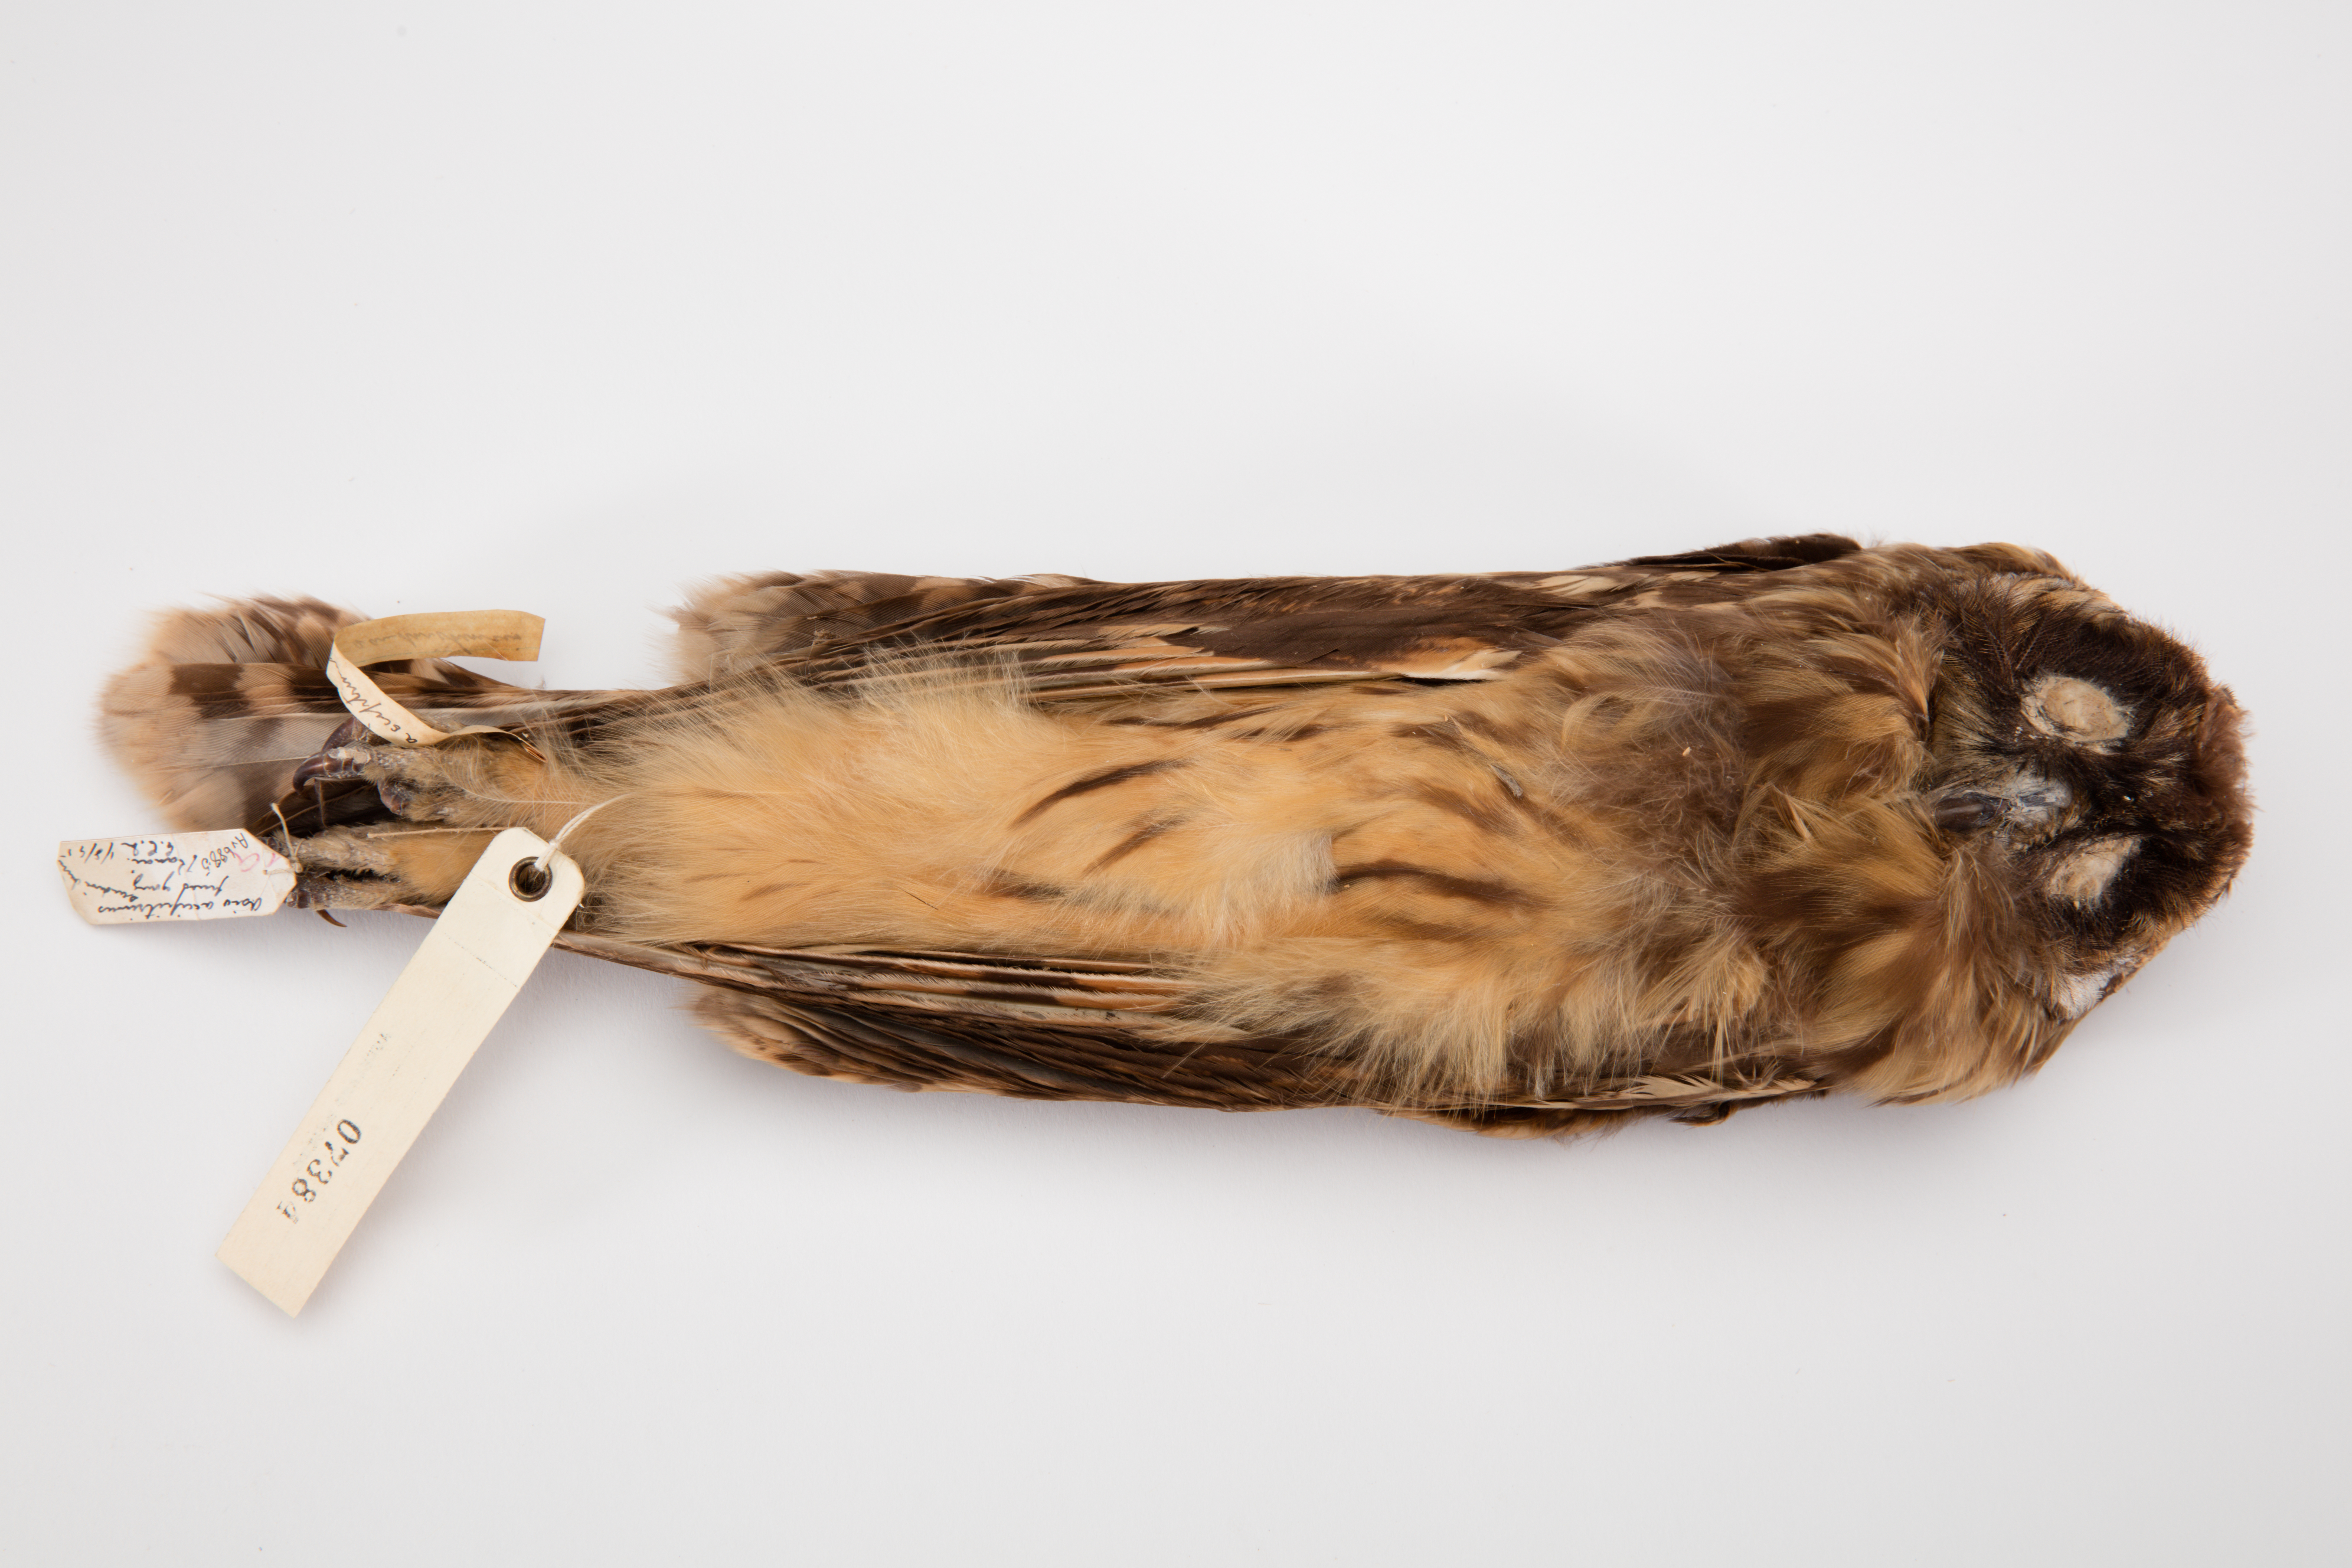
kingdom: Animalia
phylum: Chordata
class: Aves
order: Strigiformes
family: Strigidae
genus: Asio
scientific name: Asio flammeus
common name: Short-eared owl
